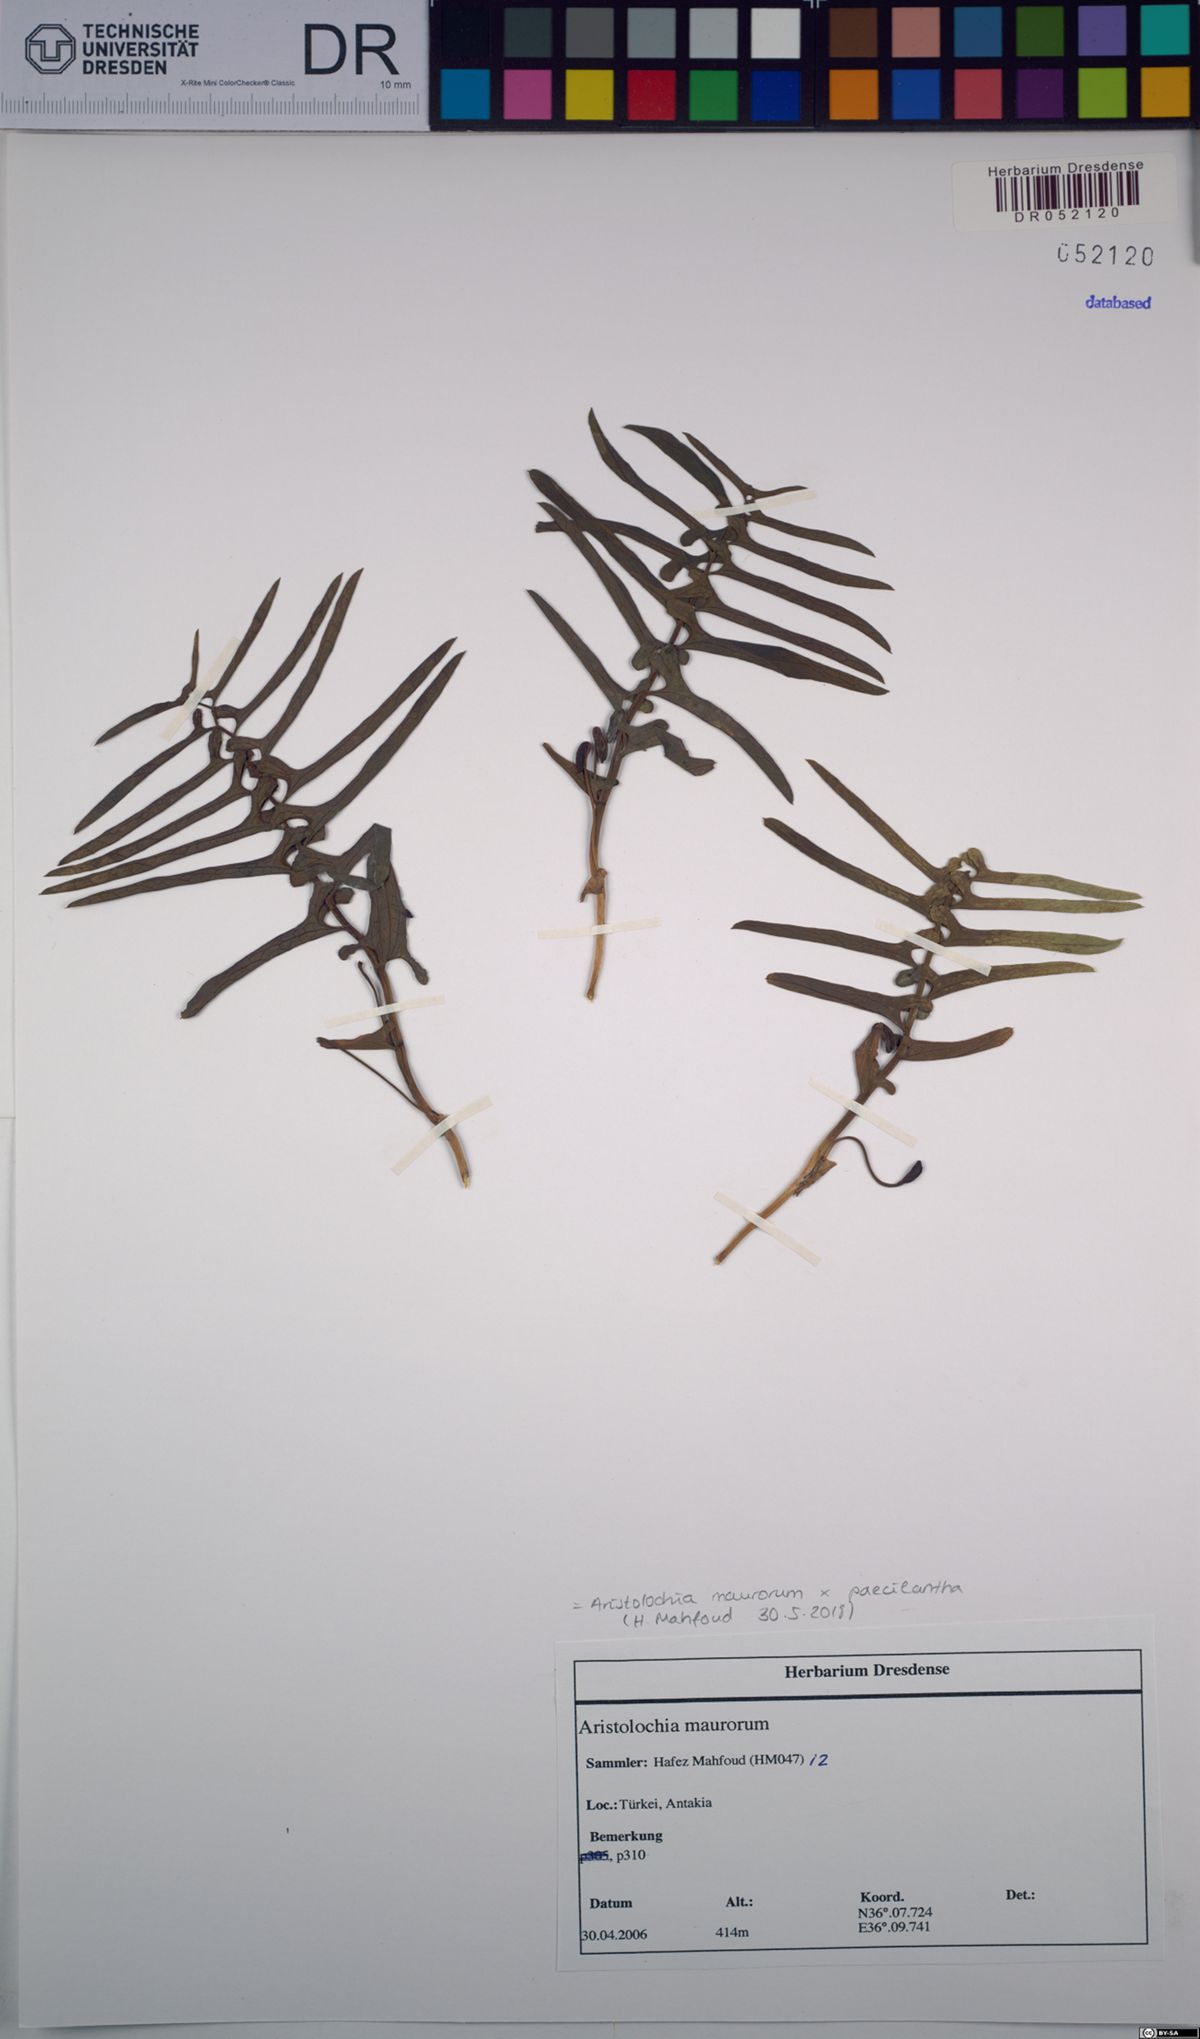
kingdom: Plantae
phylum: Tracheophyta
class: Magnoliopsida
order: Piperales
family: Aristolochiaceae
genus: Aristolochia
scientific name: Aristolochia maurorum
